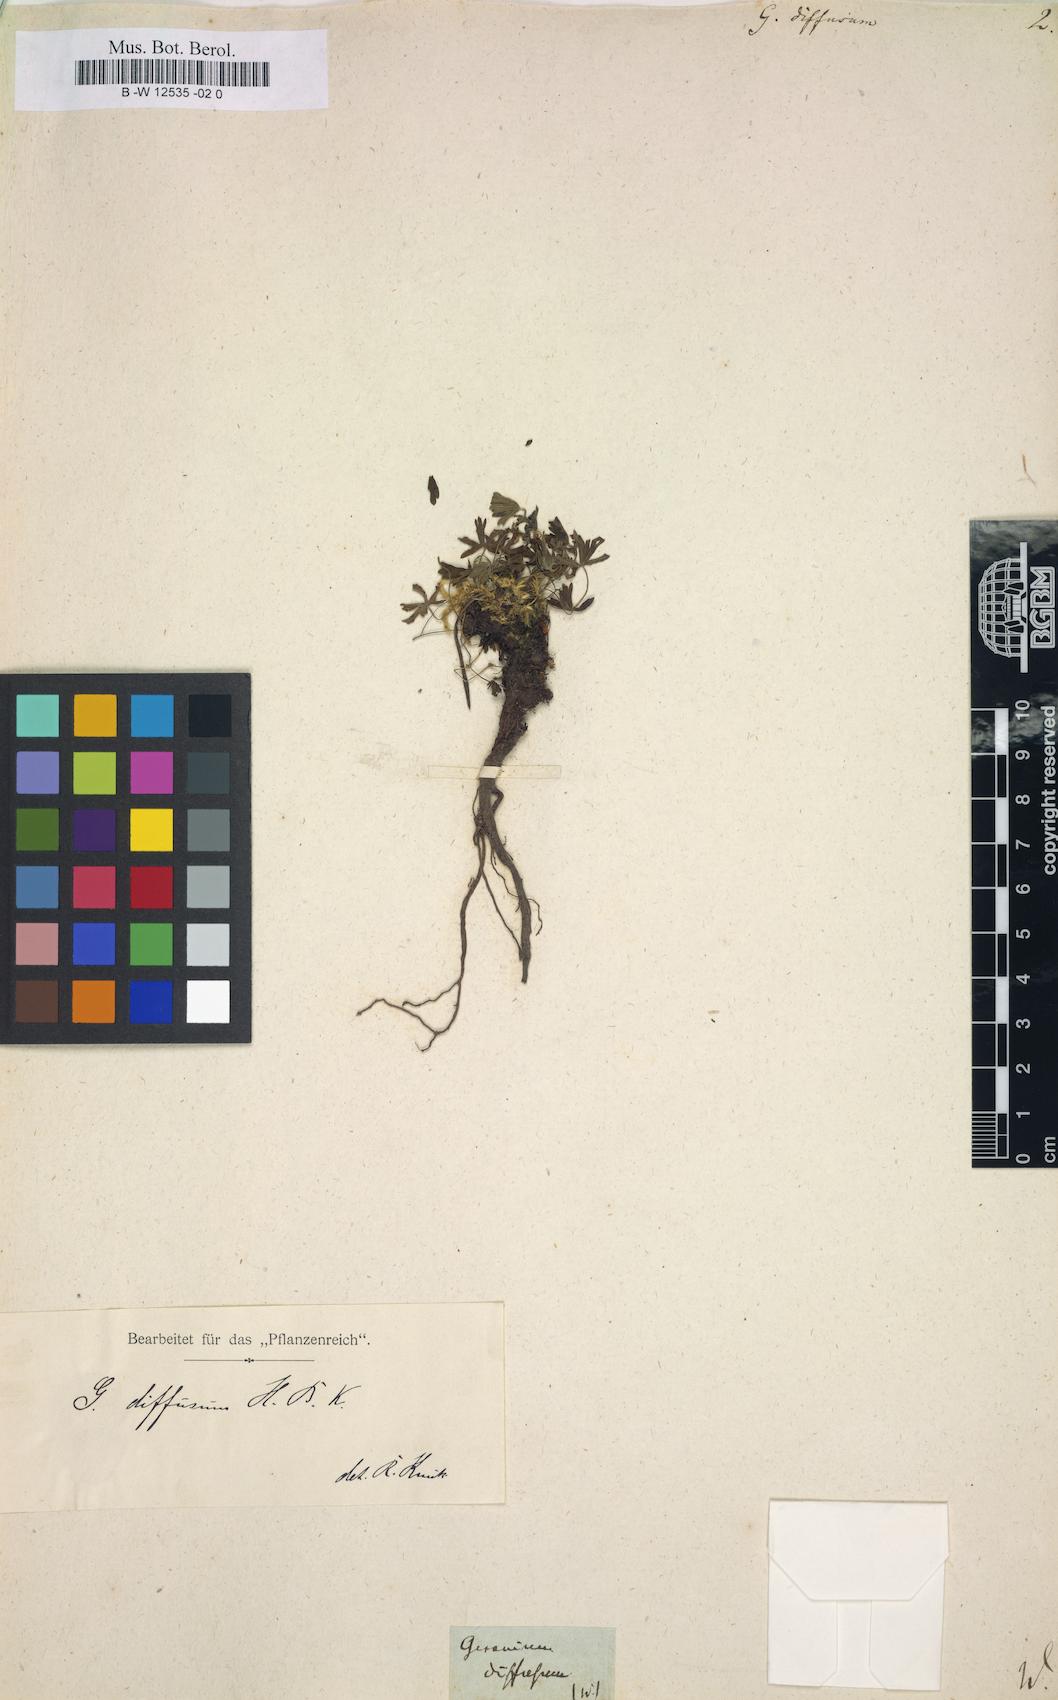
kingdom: Plantae
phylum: Tracheophyta
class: Magnoliopsida
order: Geraniales
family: Geraniaceae
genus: Geranium
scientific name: Geranium diffusum
